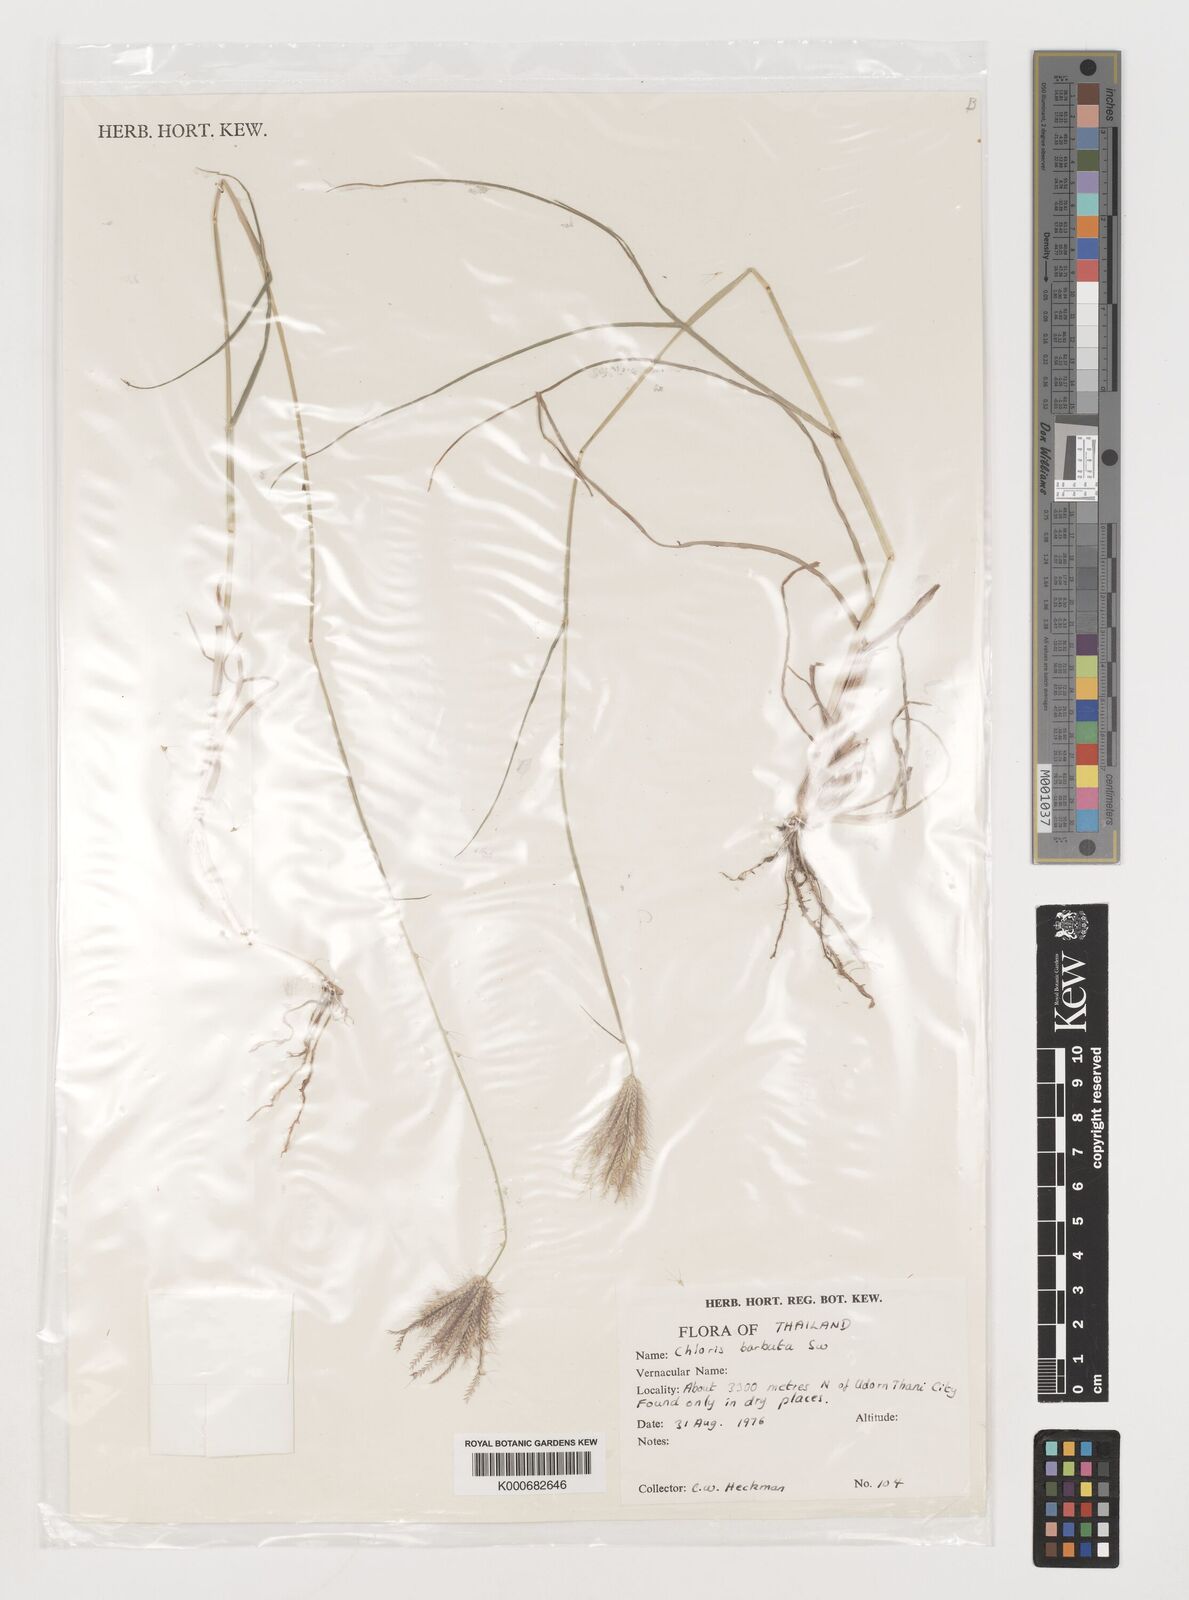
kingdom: Plantae
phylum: Tracheophyta
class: Liliopsida
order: Poales
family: Poaceae
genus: Chloris
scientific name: Chloris barbata
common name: Swollen fingergrass
